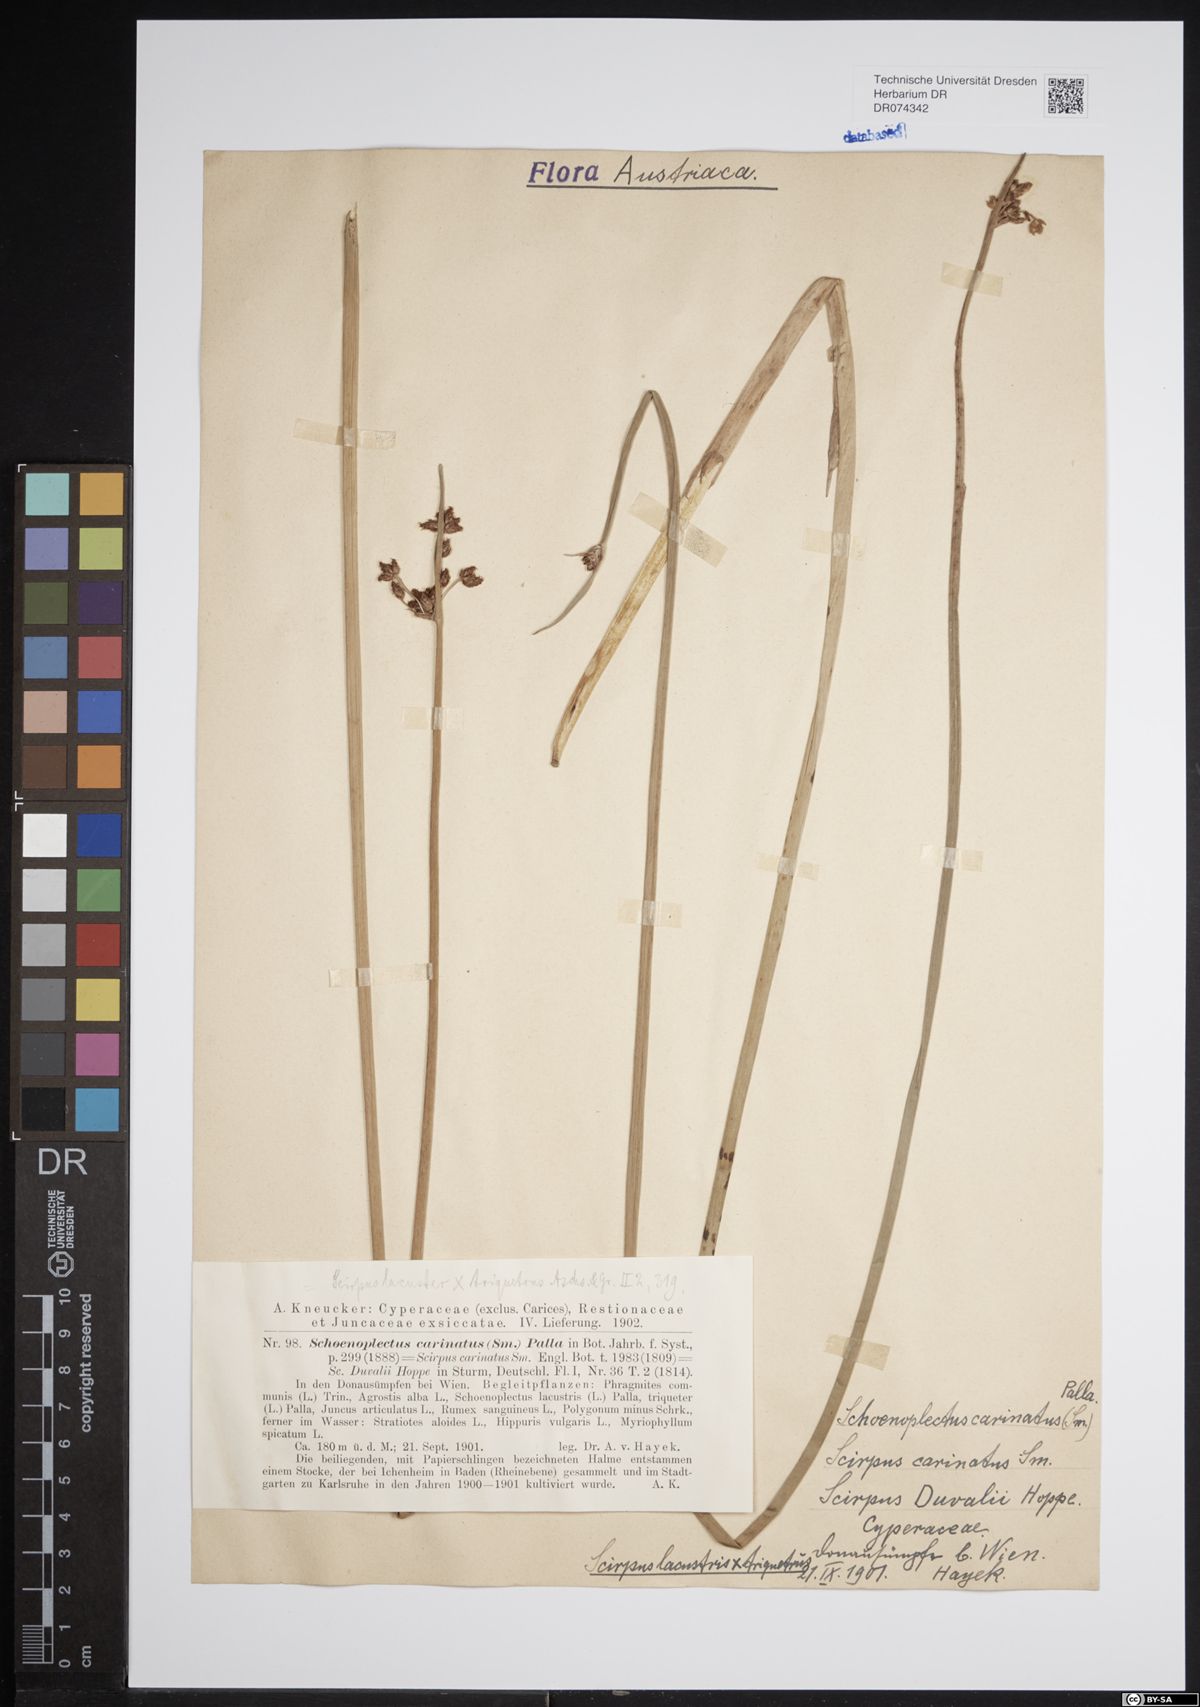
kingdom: Plantae
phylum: Tracheophyta
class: Liliopsida
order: Poales
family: Cyperaceae
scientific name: Cyperaceae
